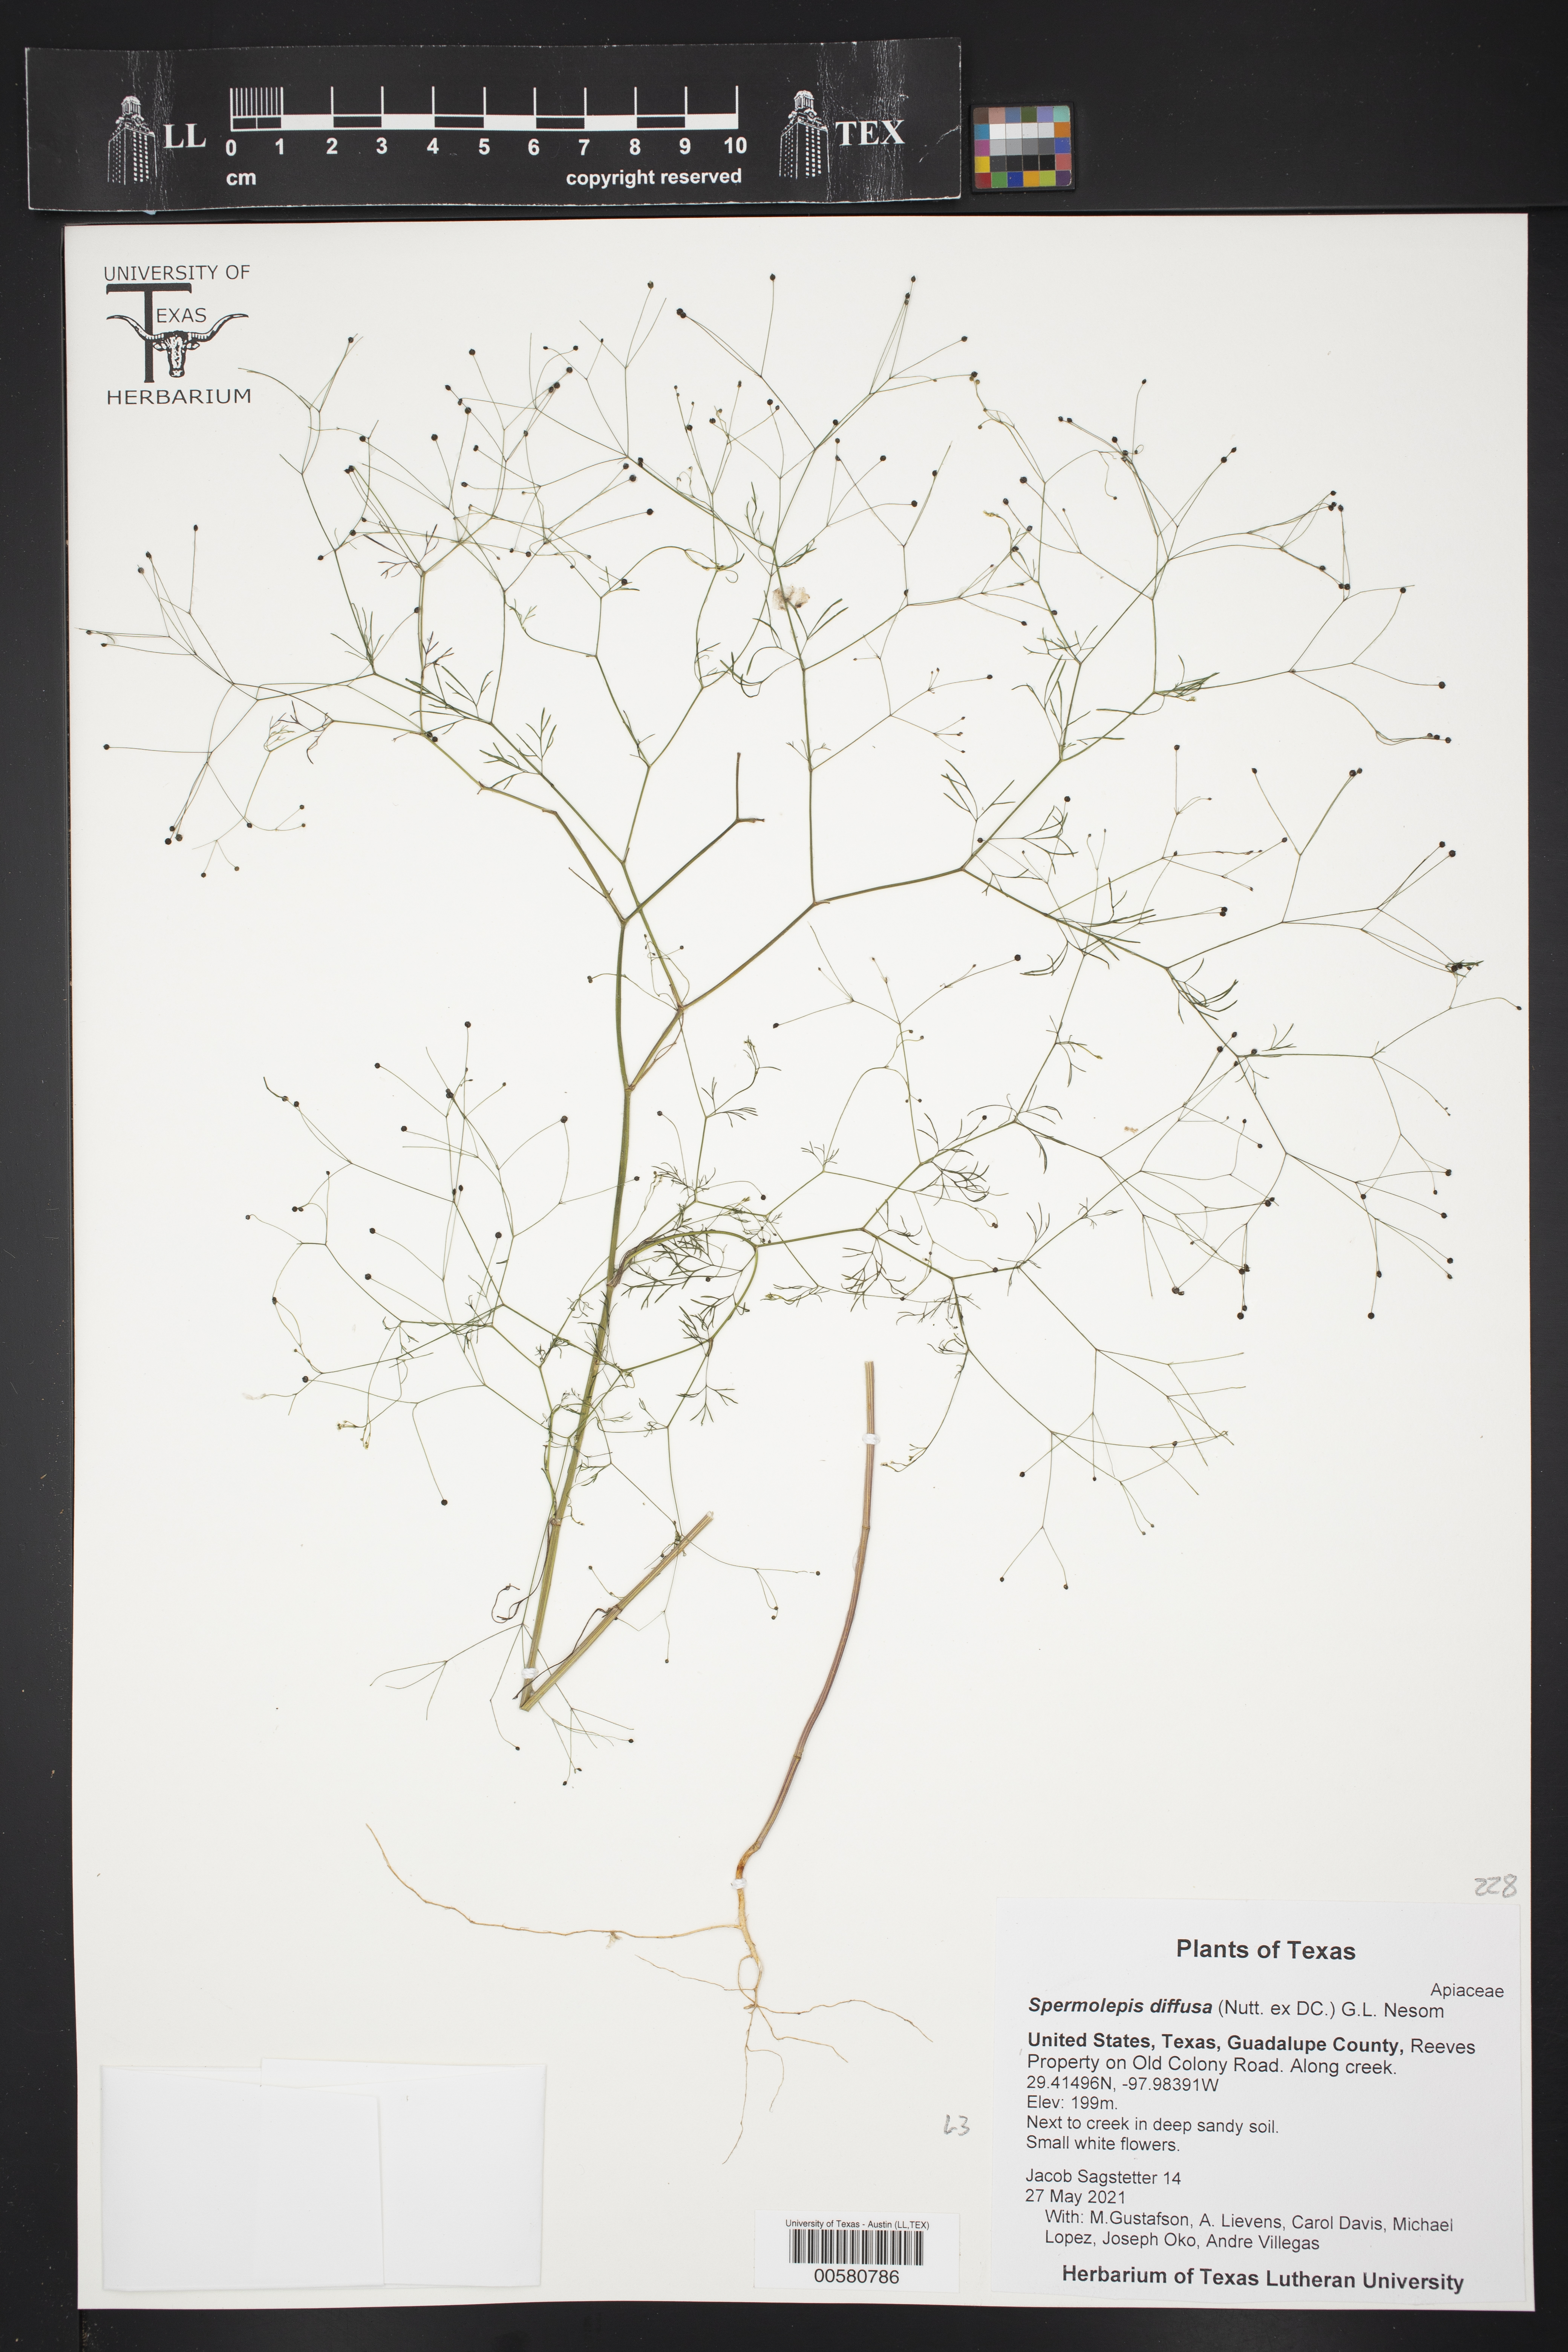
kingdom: Plantae
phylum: Tracheophyta
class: Magnoliopsida
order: Apiales
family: Apiaceae
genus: Spermolepis
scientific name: Spermolepis diffusa
